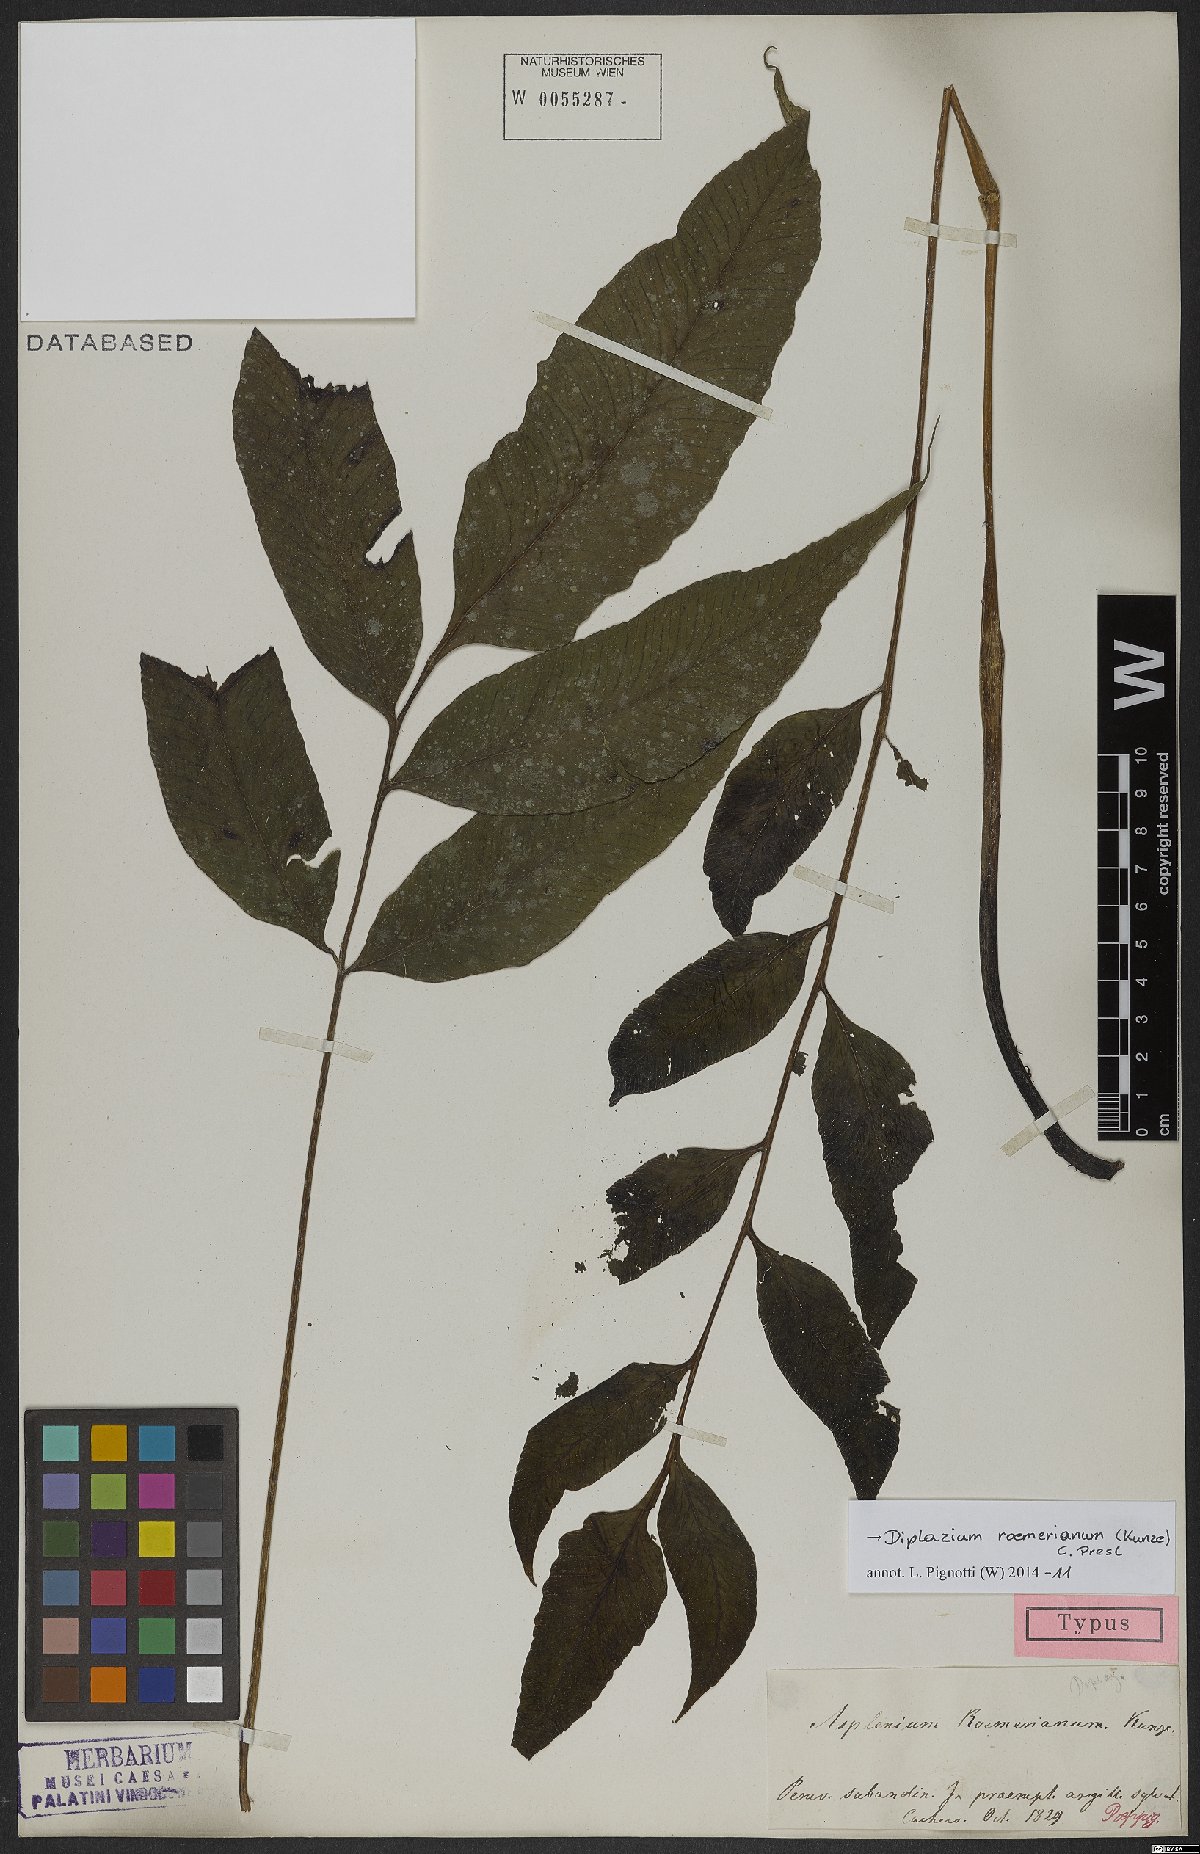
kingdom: Plantae
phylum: Tracheophyta
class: Polypodiopsida
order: Polypodiales
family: Athyriaceae
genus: Diplazium
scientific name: Diplazium roemerianum
